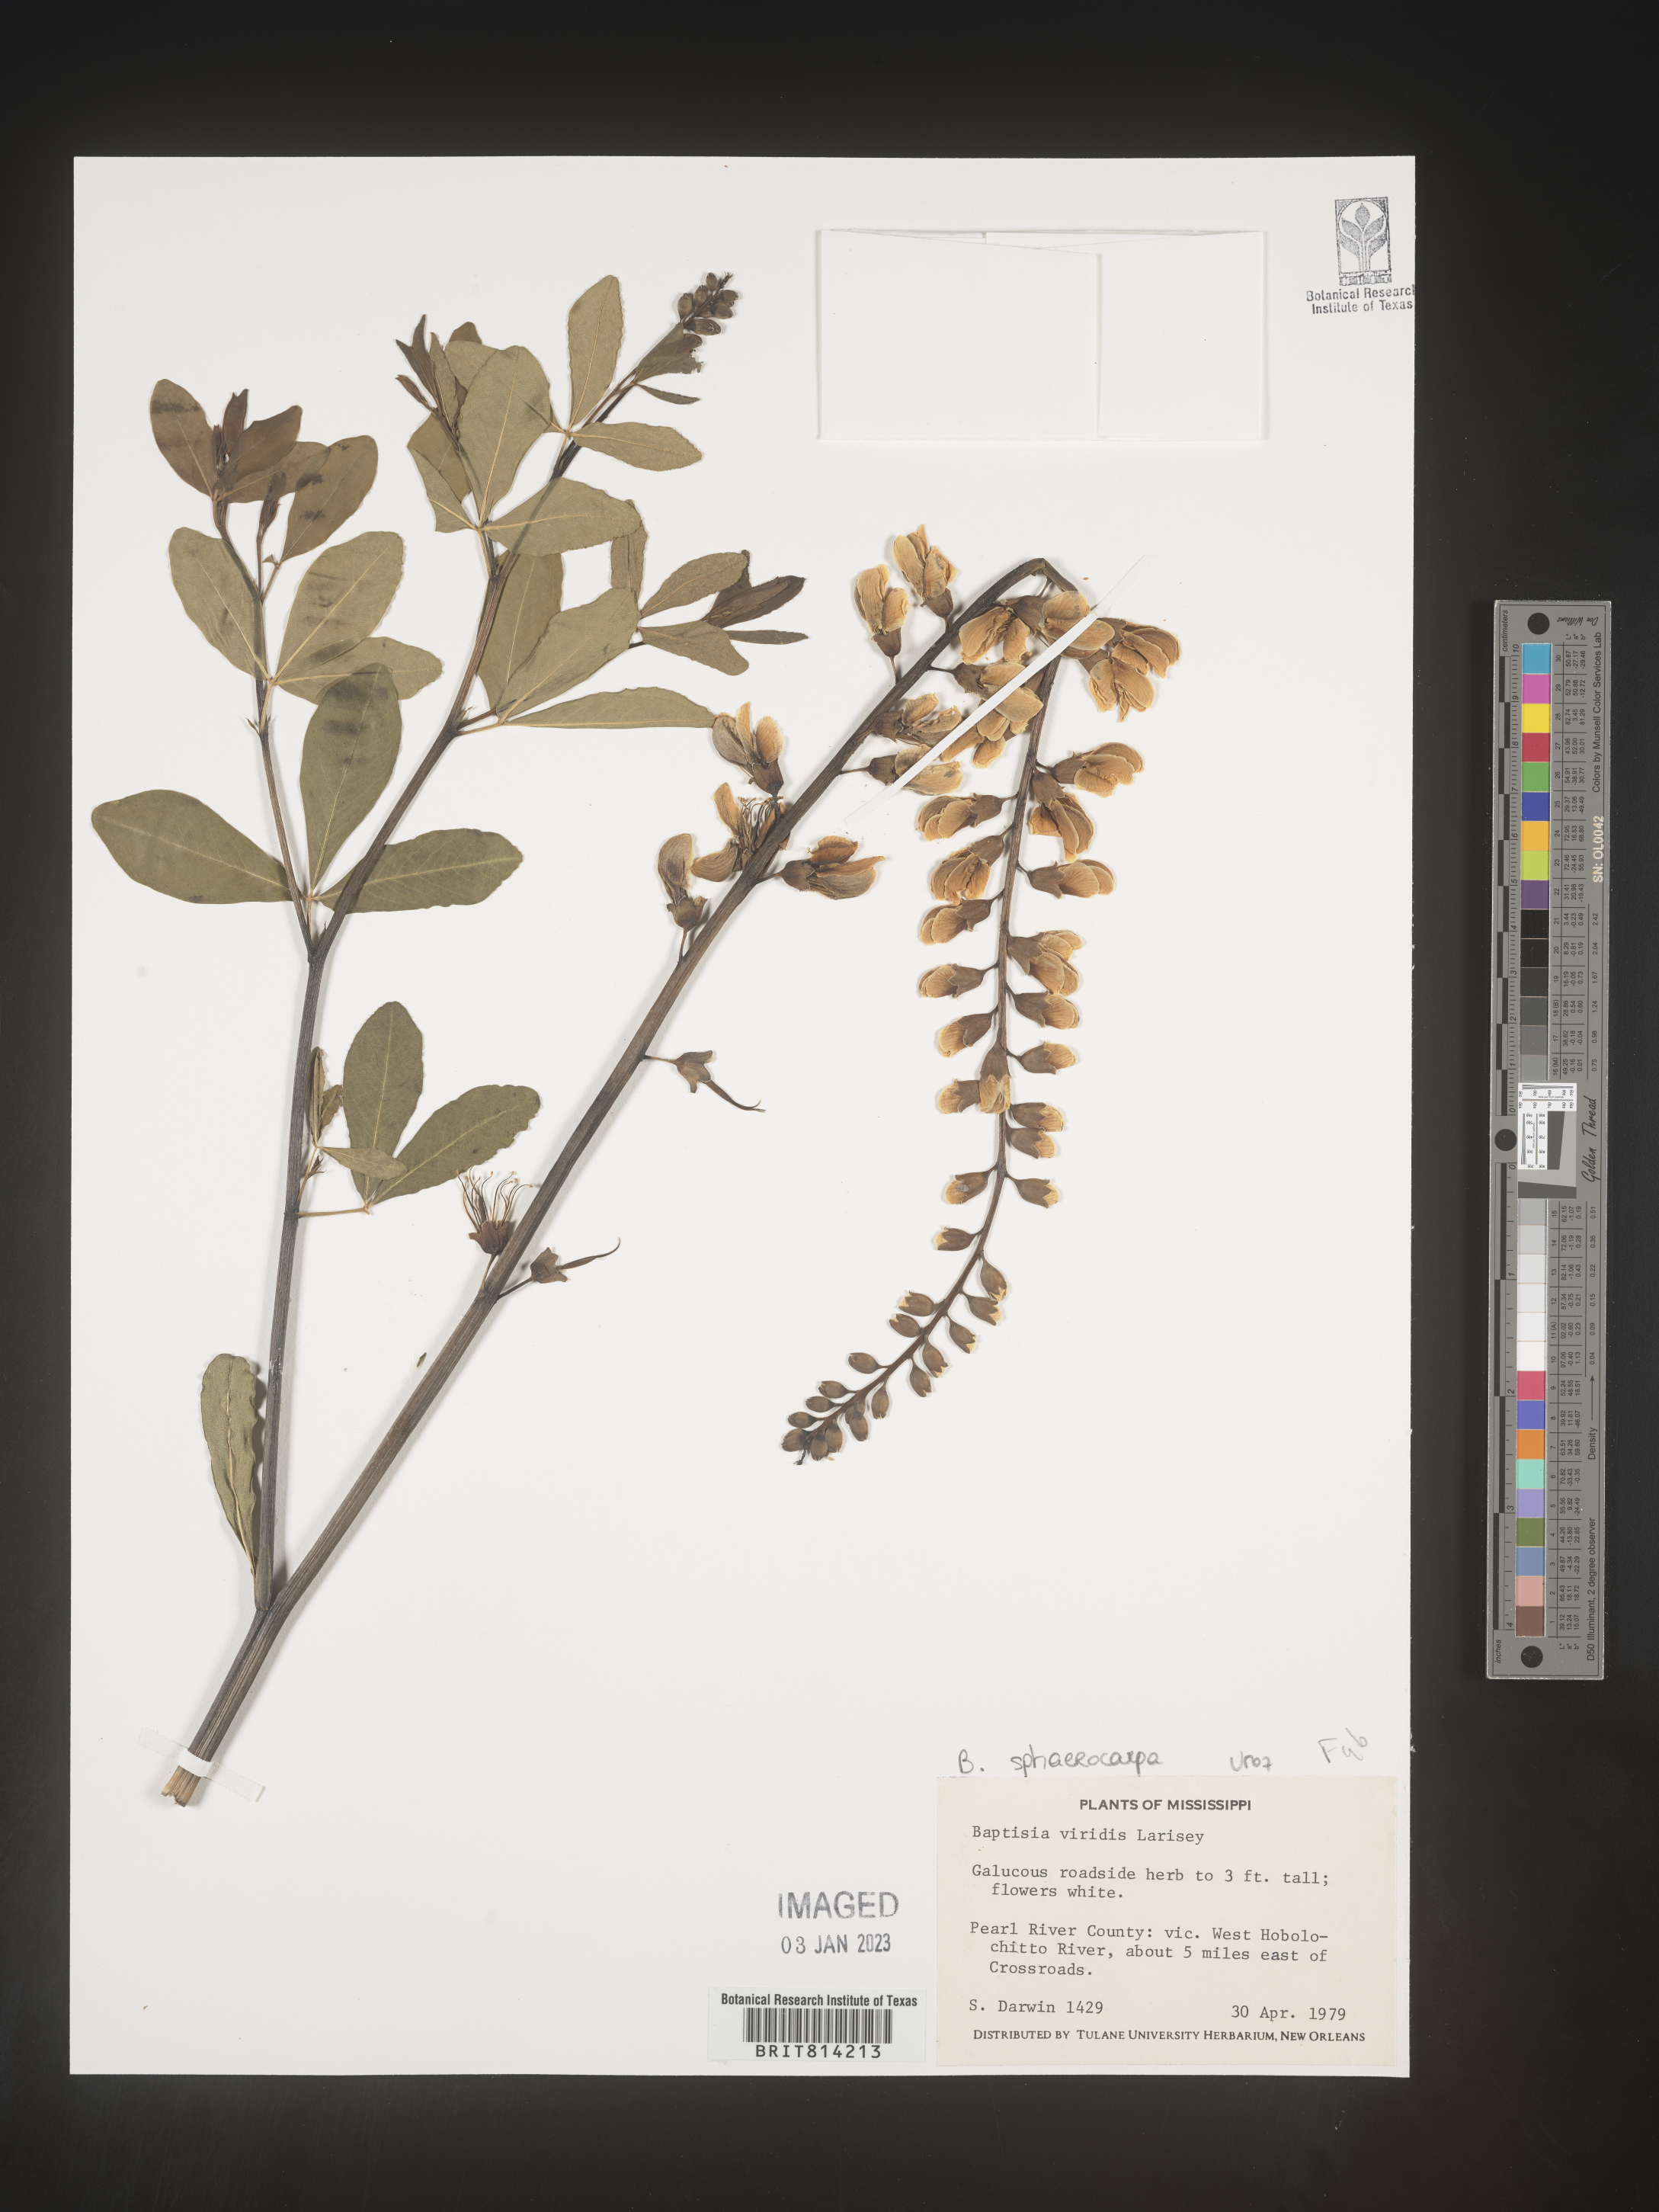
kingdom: Plantae
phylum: Tracheophyta
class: Magnoliopsida
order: Fabales
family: Fabaceae
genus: Baptisia
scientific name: Baptisia sphaerocarpa
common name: Round wild indigo
